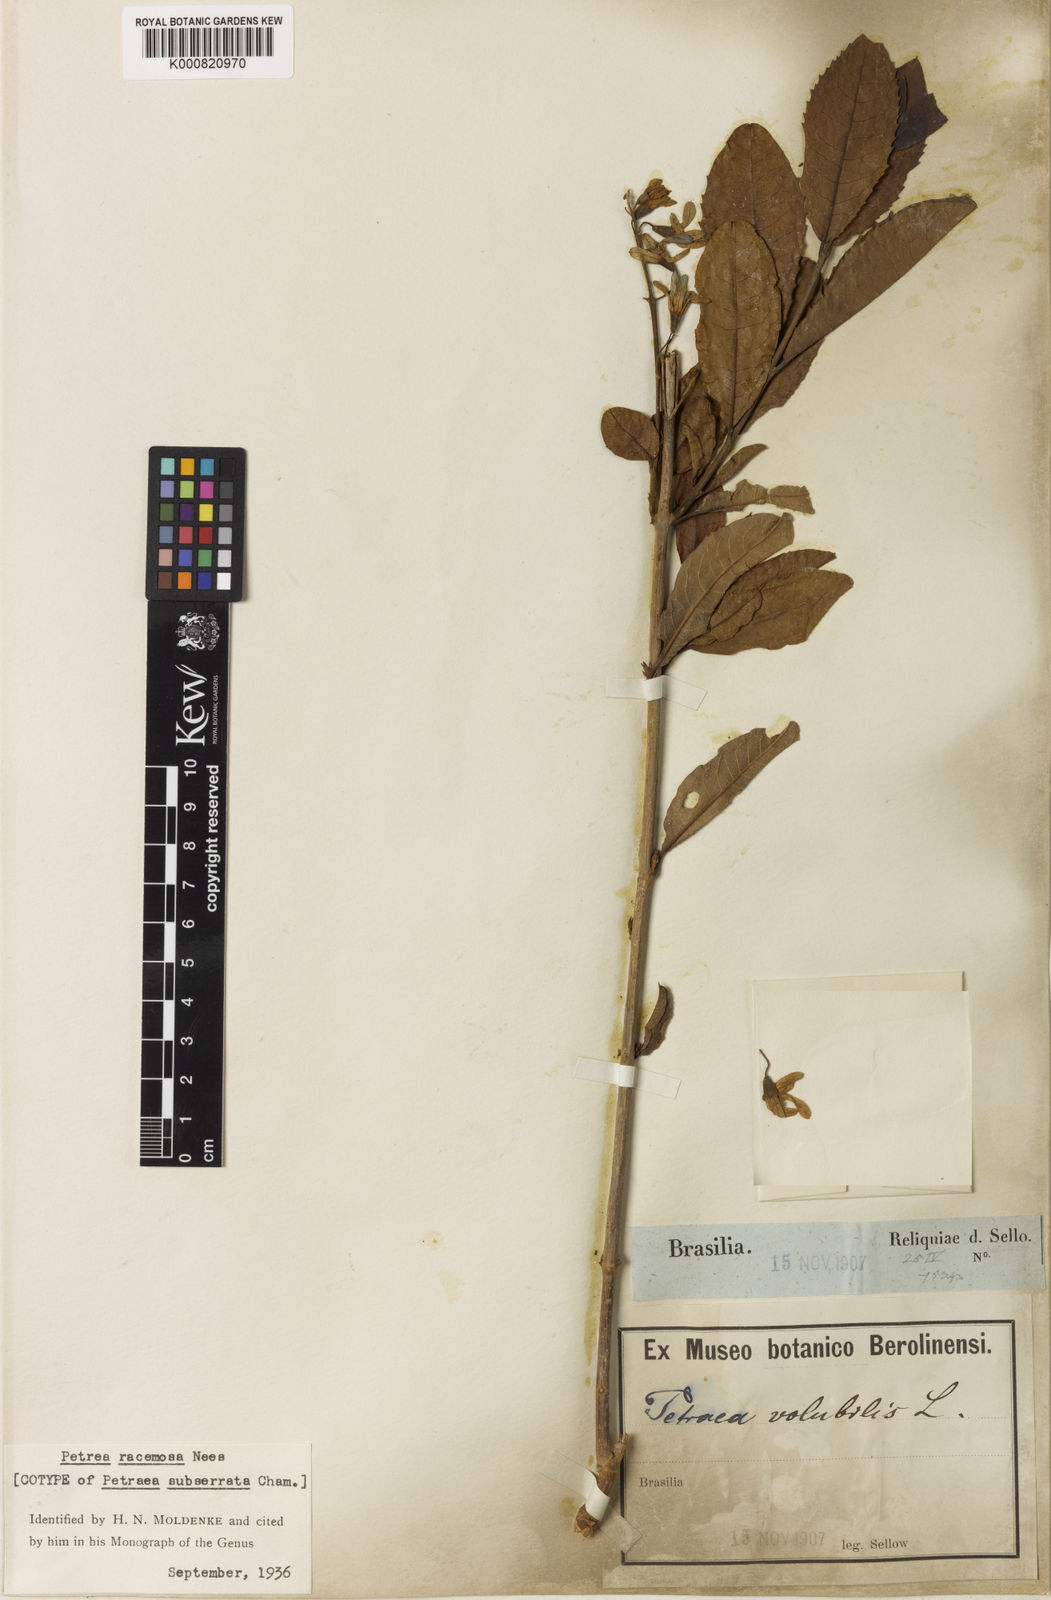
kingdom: Plantae
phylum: Tracheophyta
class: Magnoliopsida
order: Lamiales
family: Verbenaceae
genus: Petrea
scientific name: Petrea volubilis
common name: Queen's-wreath
